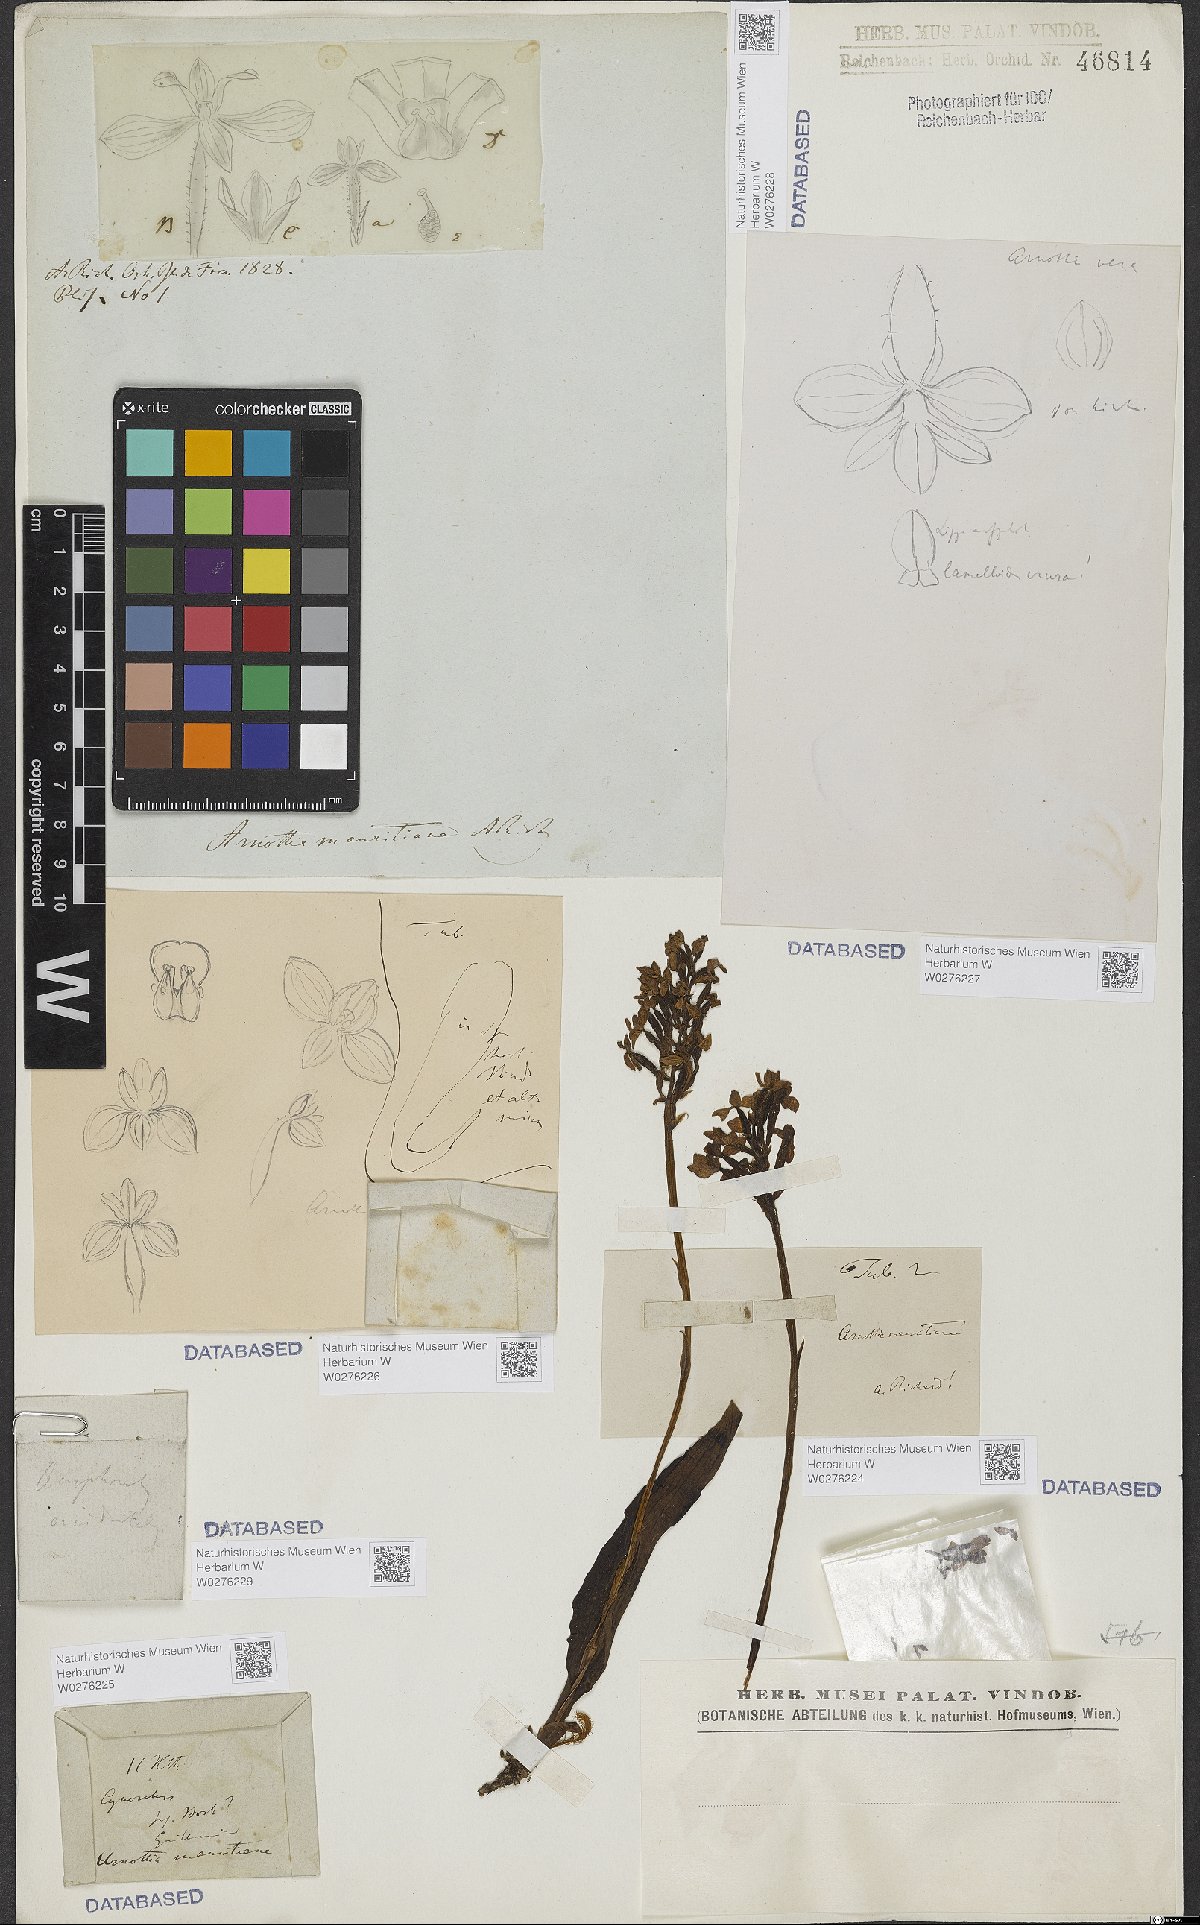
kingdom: Plantae
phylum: Tracheophyta
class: Liliopsida
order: Asparagales
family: Orchidaceae
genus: Cynorkis
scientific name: Cynorkis inermis
